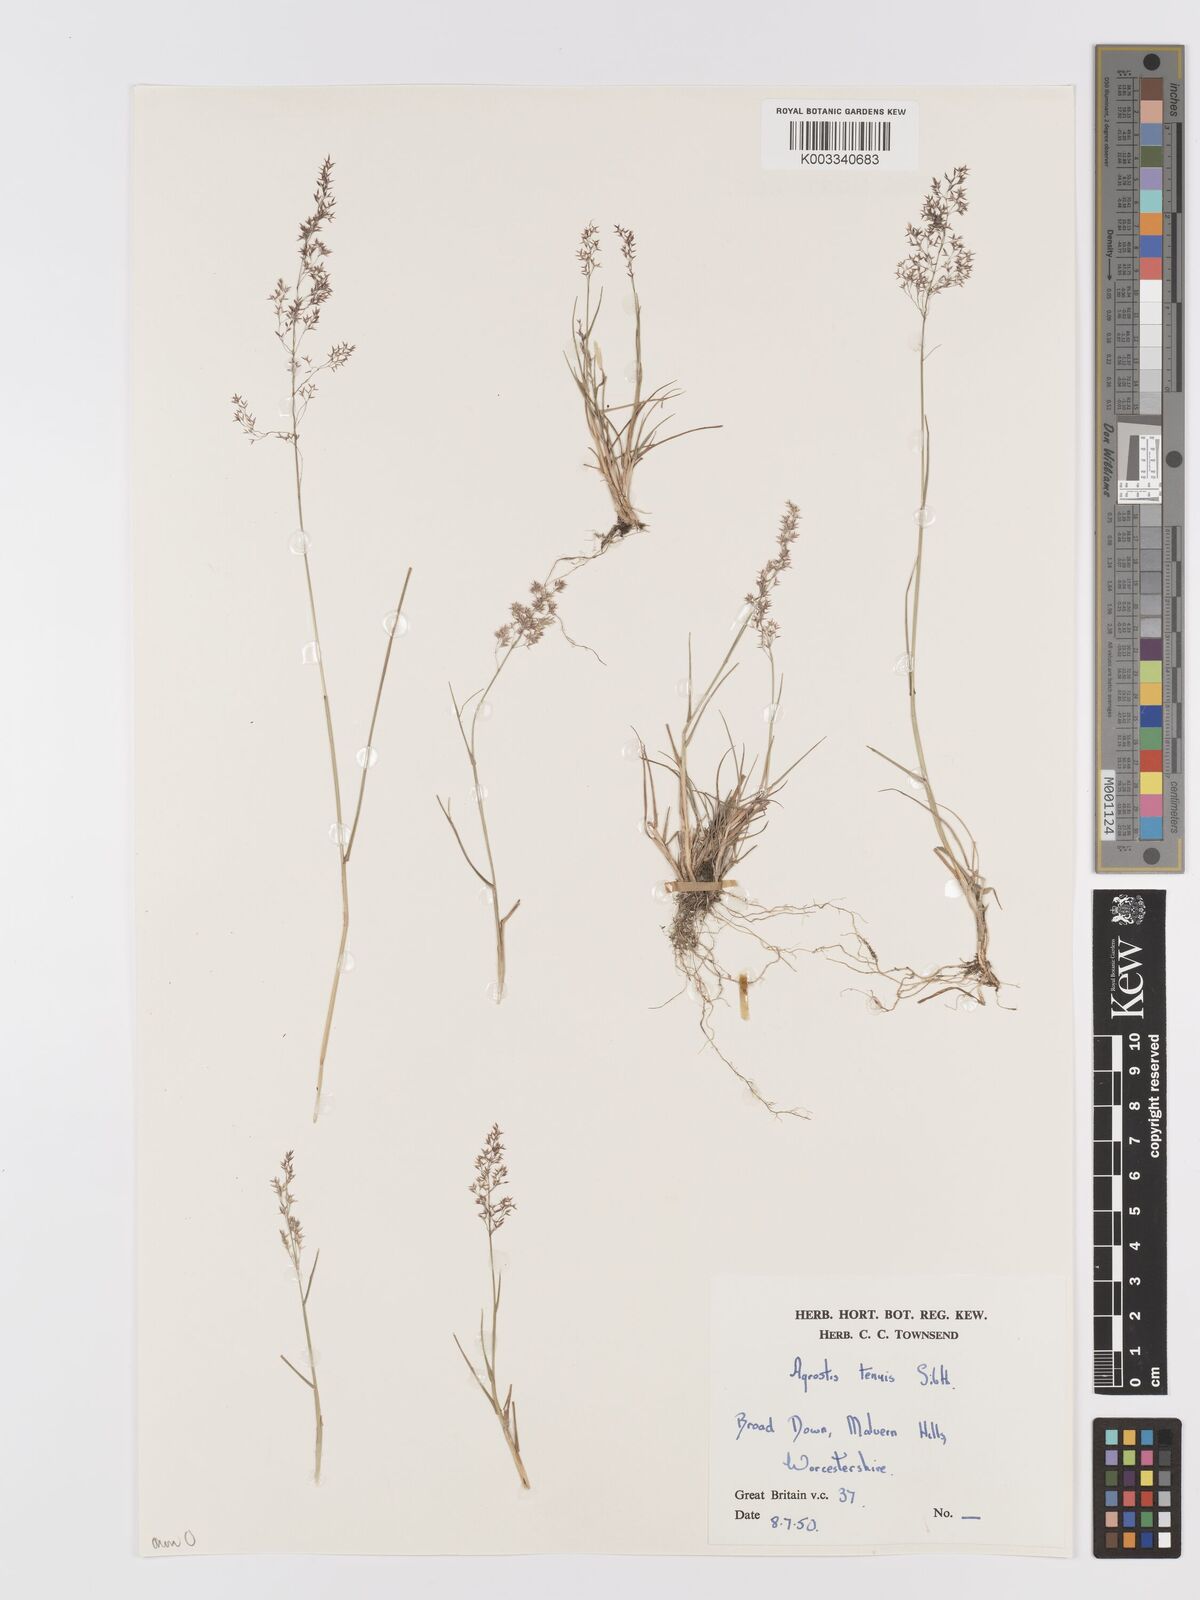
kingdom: Plantae
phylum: Tracheophyta
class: Liliopsida
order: Poales
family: Poaceae
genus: Agrostis
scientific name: Agrostis capillaris
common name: Colonial bentgrass
